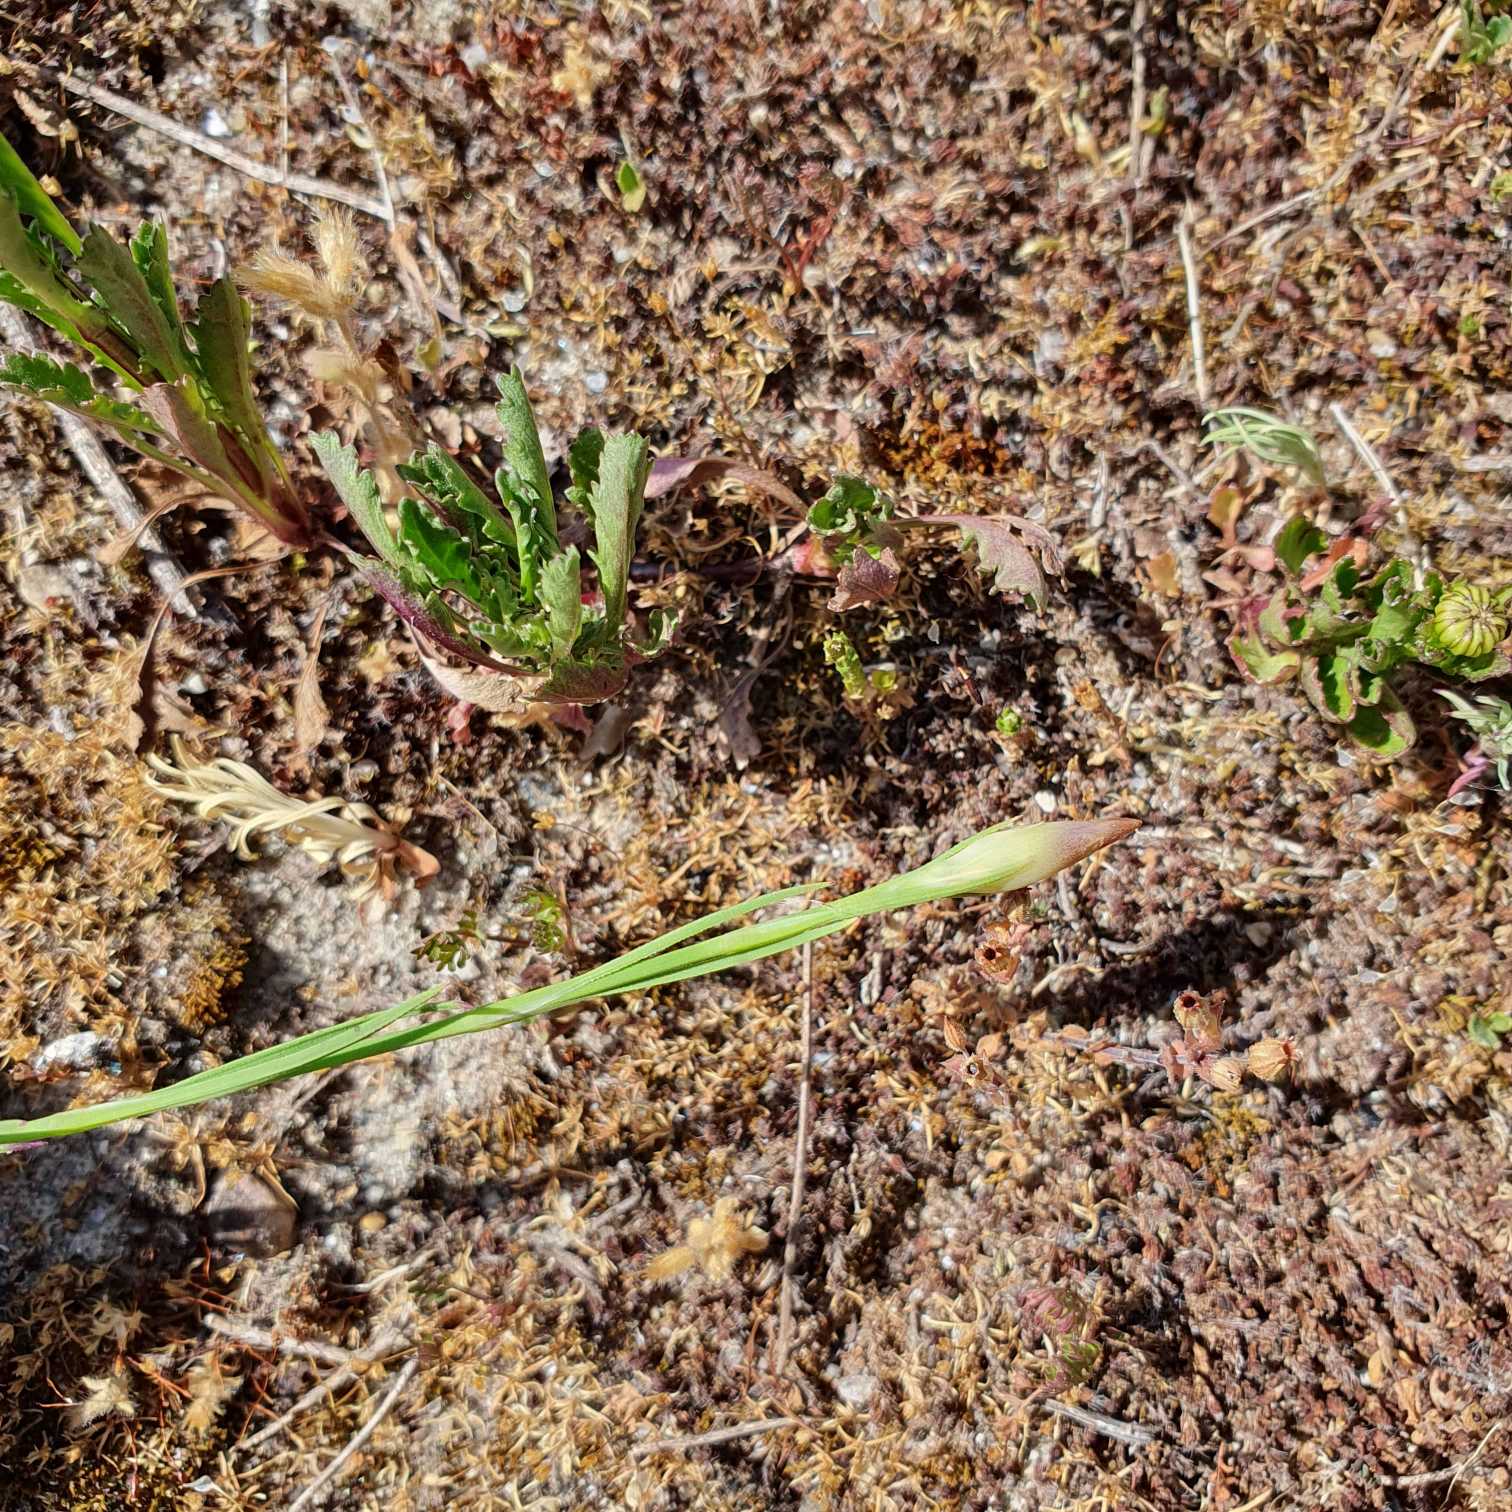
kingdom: Plantae
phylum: Tracheophyta
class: Magnoliopsida
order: Caryophyllales
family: Caryophyllaceae
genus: Petrorhagia
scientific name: Petrorhagia prolifera
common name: Knopnellike
